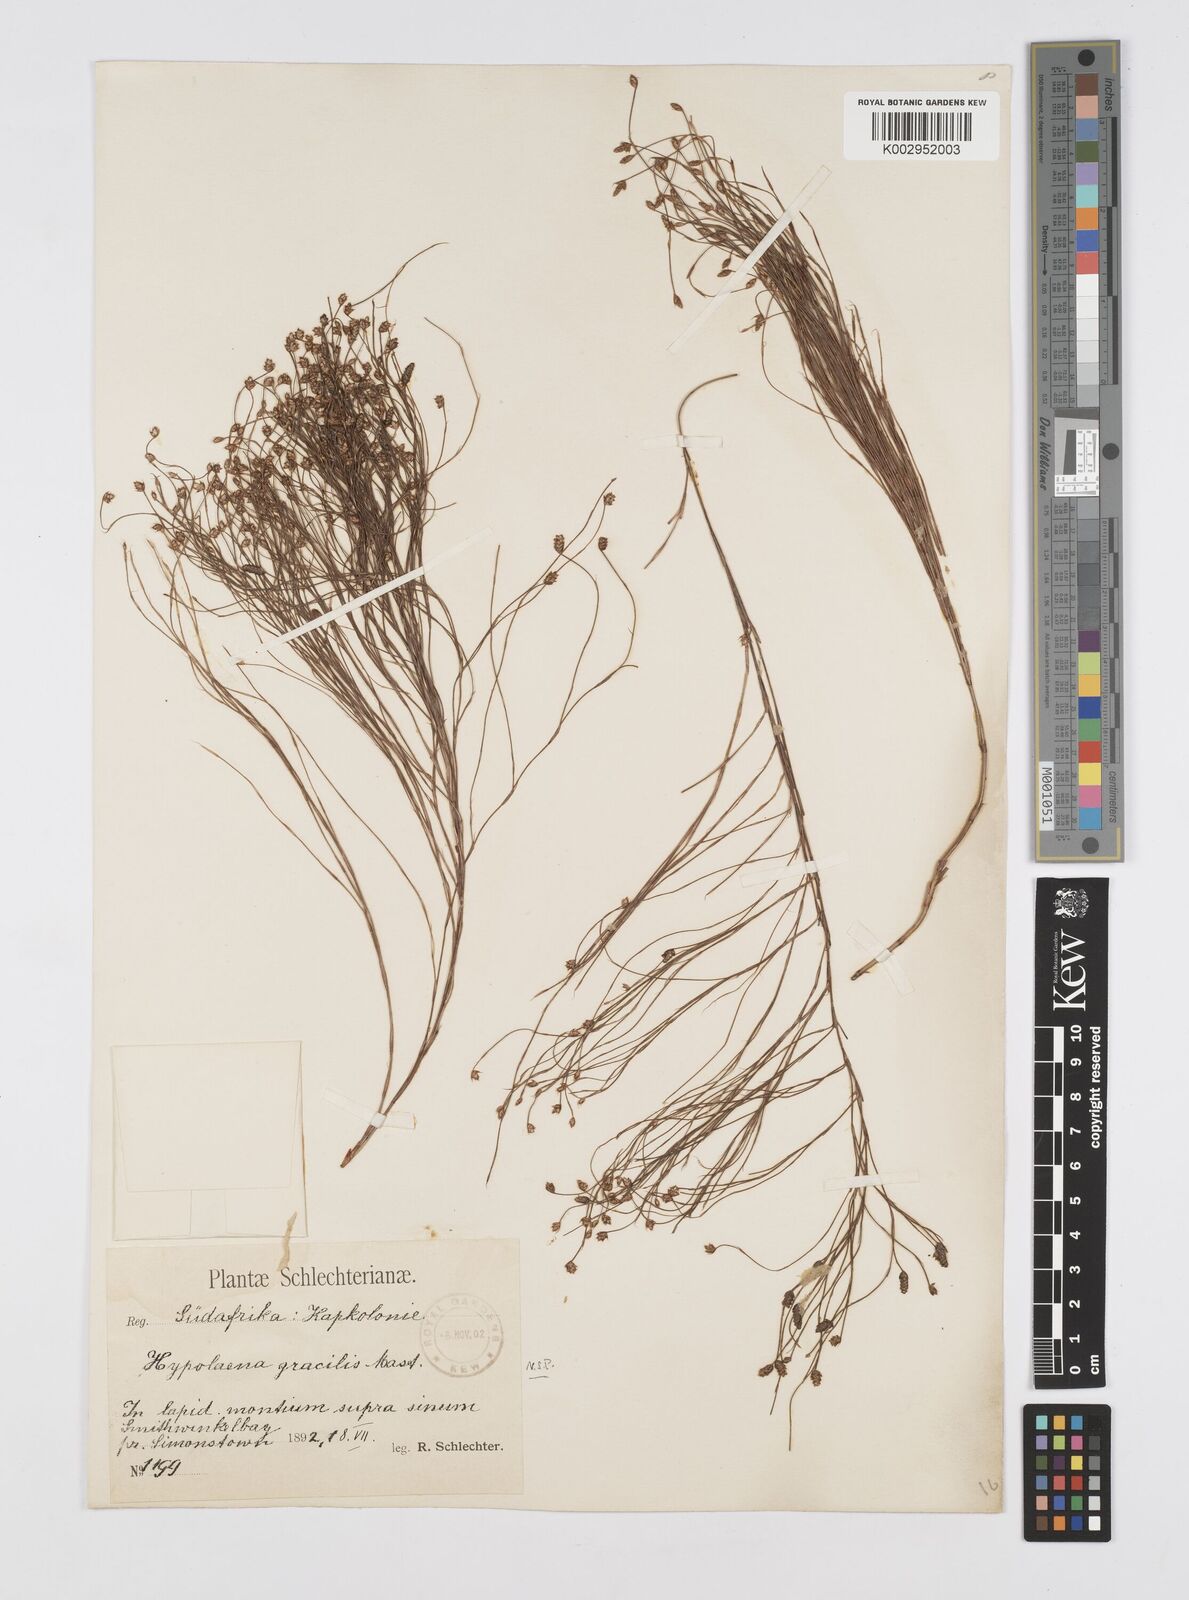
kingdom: Plantae
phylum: Tracheophyta
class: Liliopsida
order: Poales
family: Restionaceae
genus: Baloskion
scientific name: Baloskion gracile
